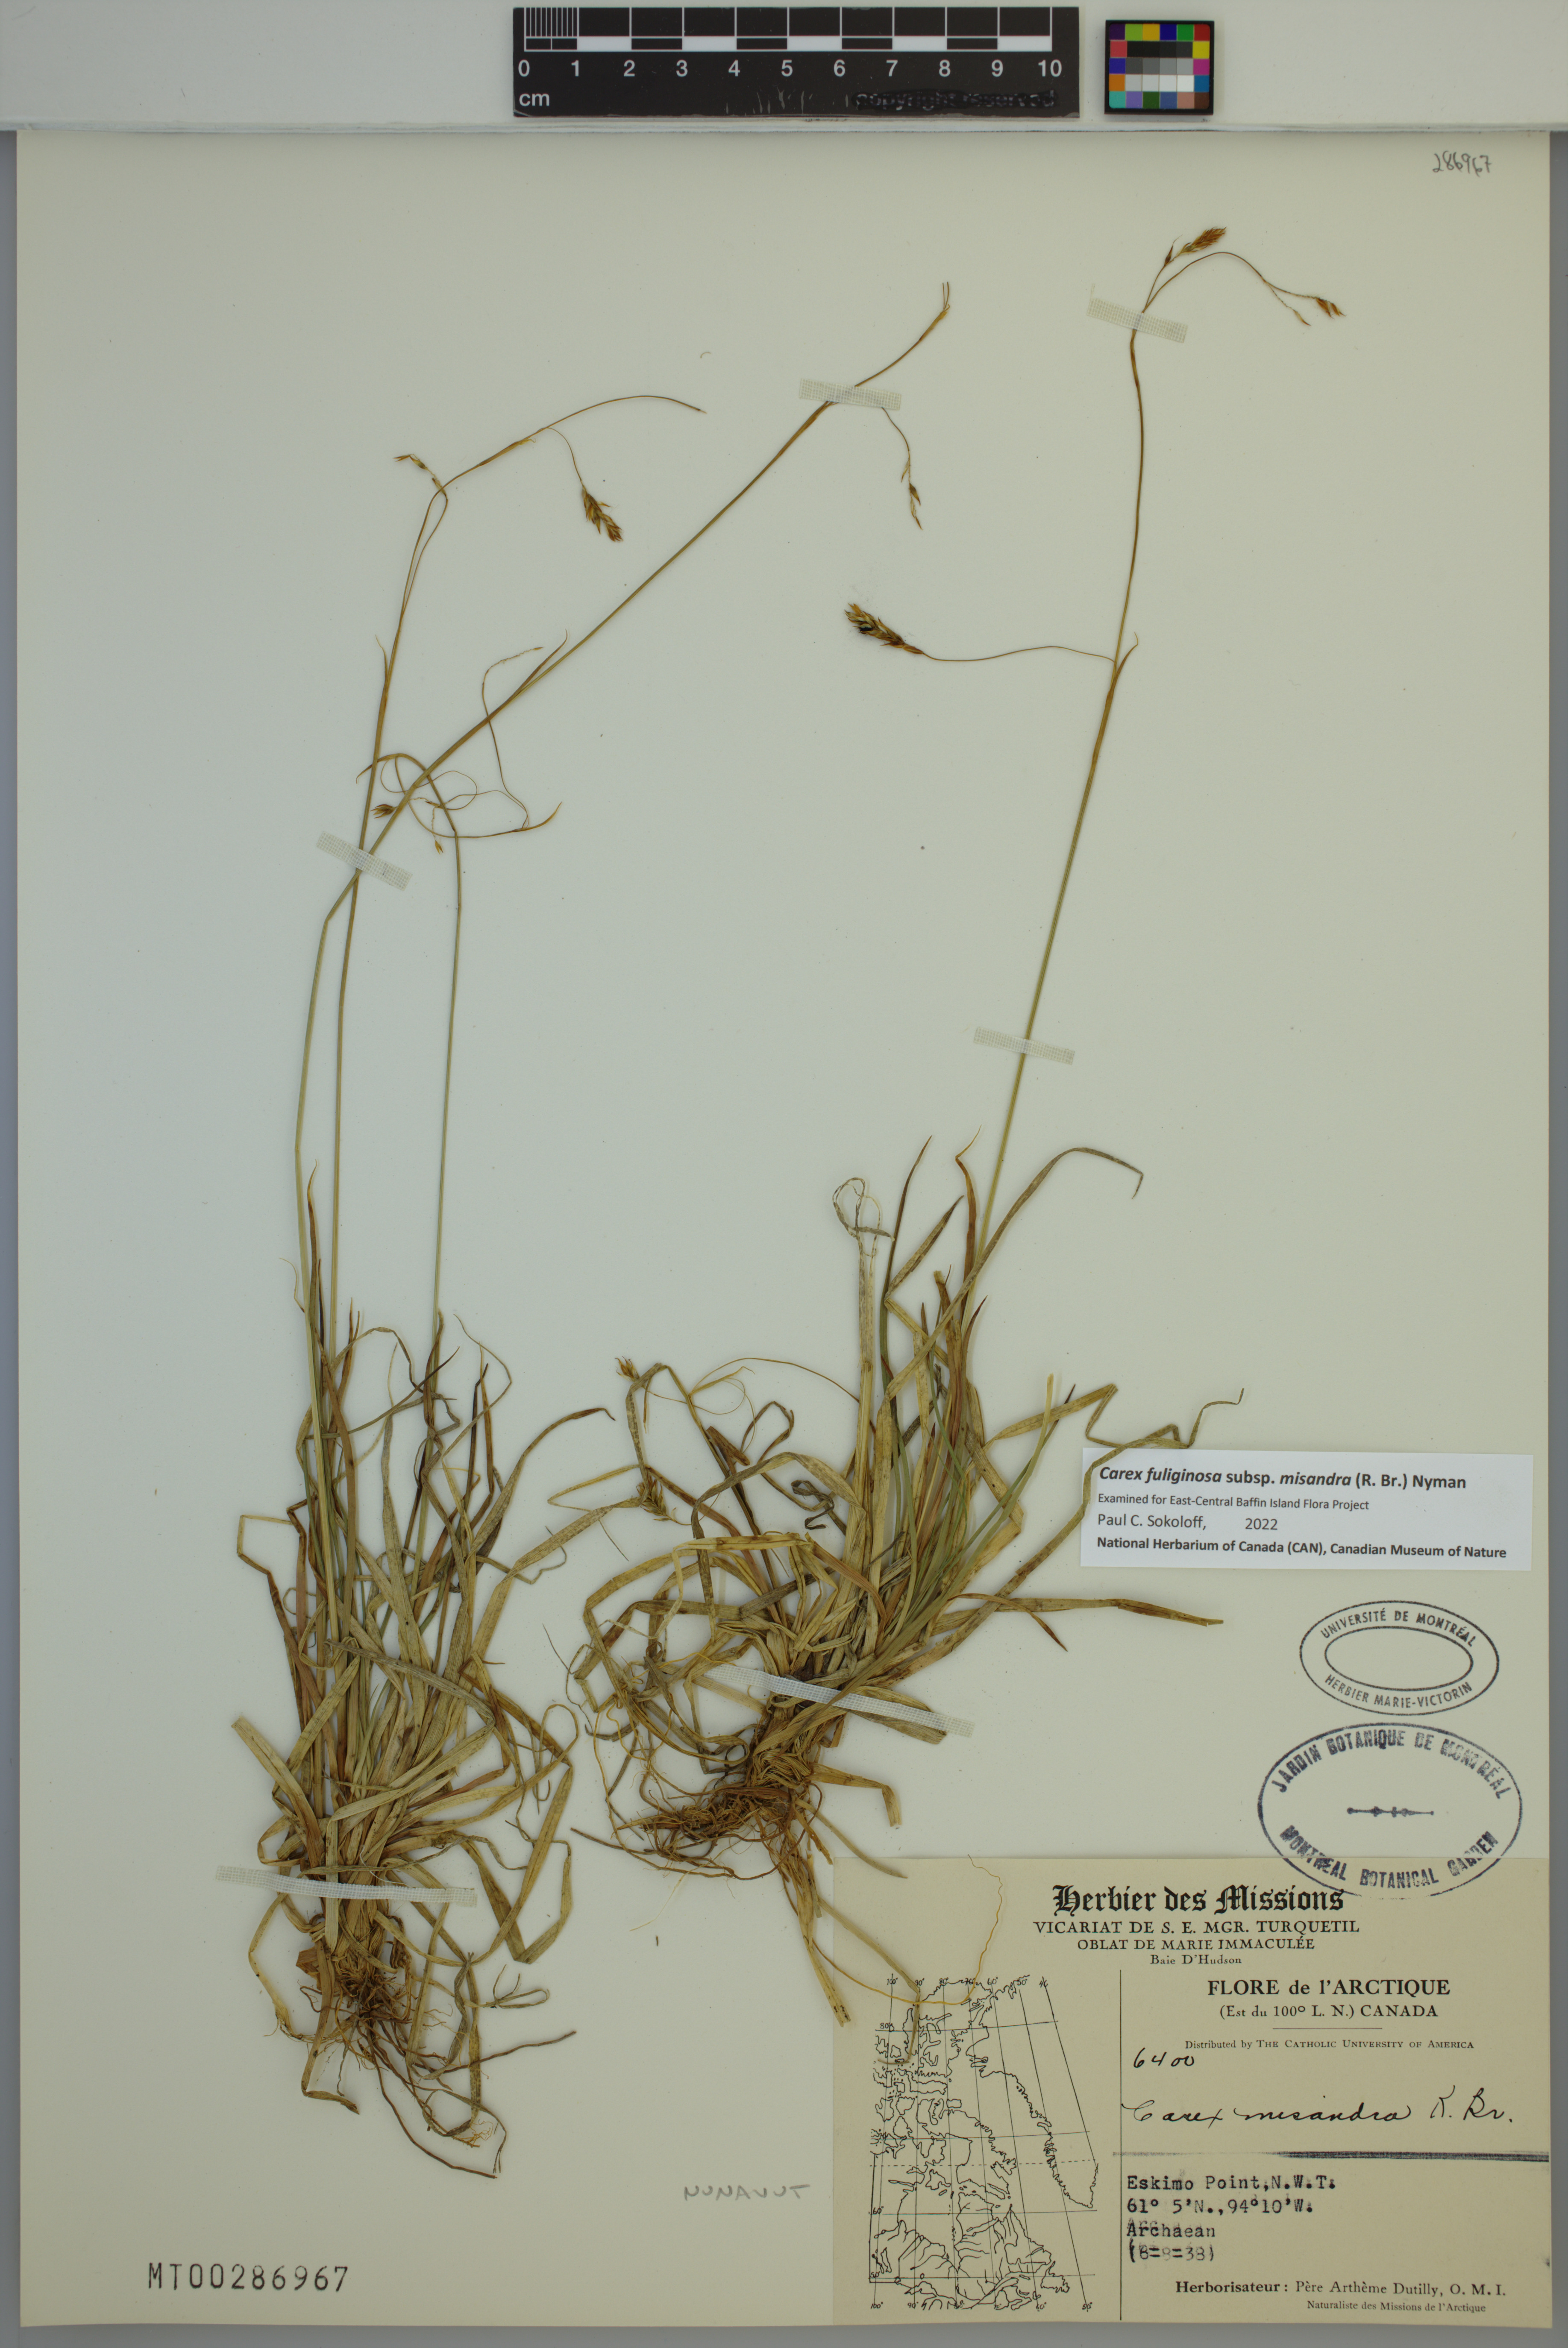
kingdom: Plantae
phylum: Tracheophyta
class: Liliopsida
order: Poales
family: Cyperaceae
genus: Carex
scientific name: Carex fuliginosa
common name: Few-flowered sedge
